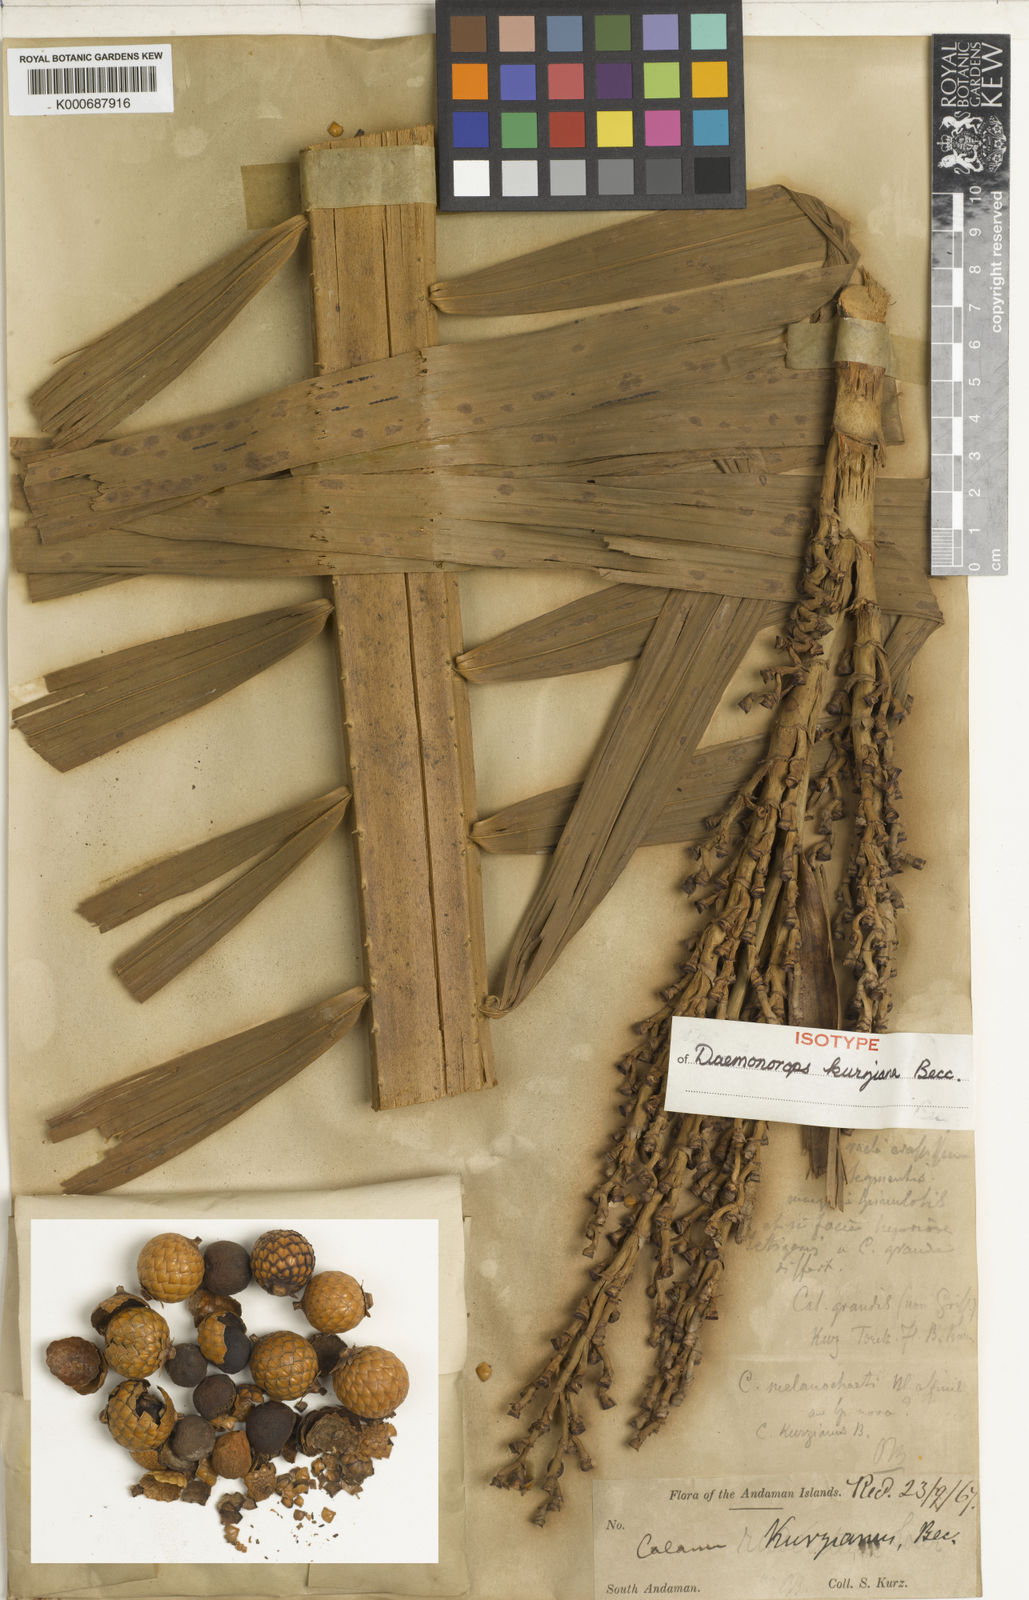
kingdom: Plantae
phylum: Tracheophyta
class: Liliopsida
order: Arecales
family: Arecaceae
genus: Calamus
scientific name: Calamus melanochaetes
